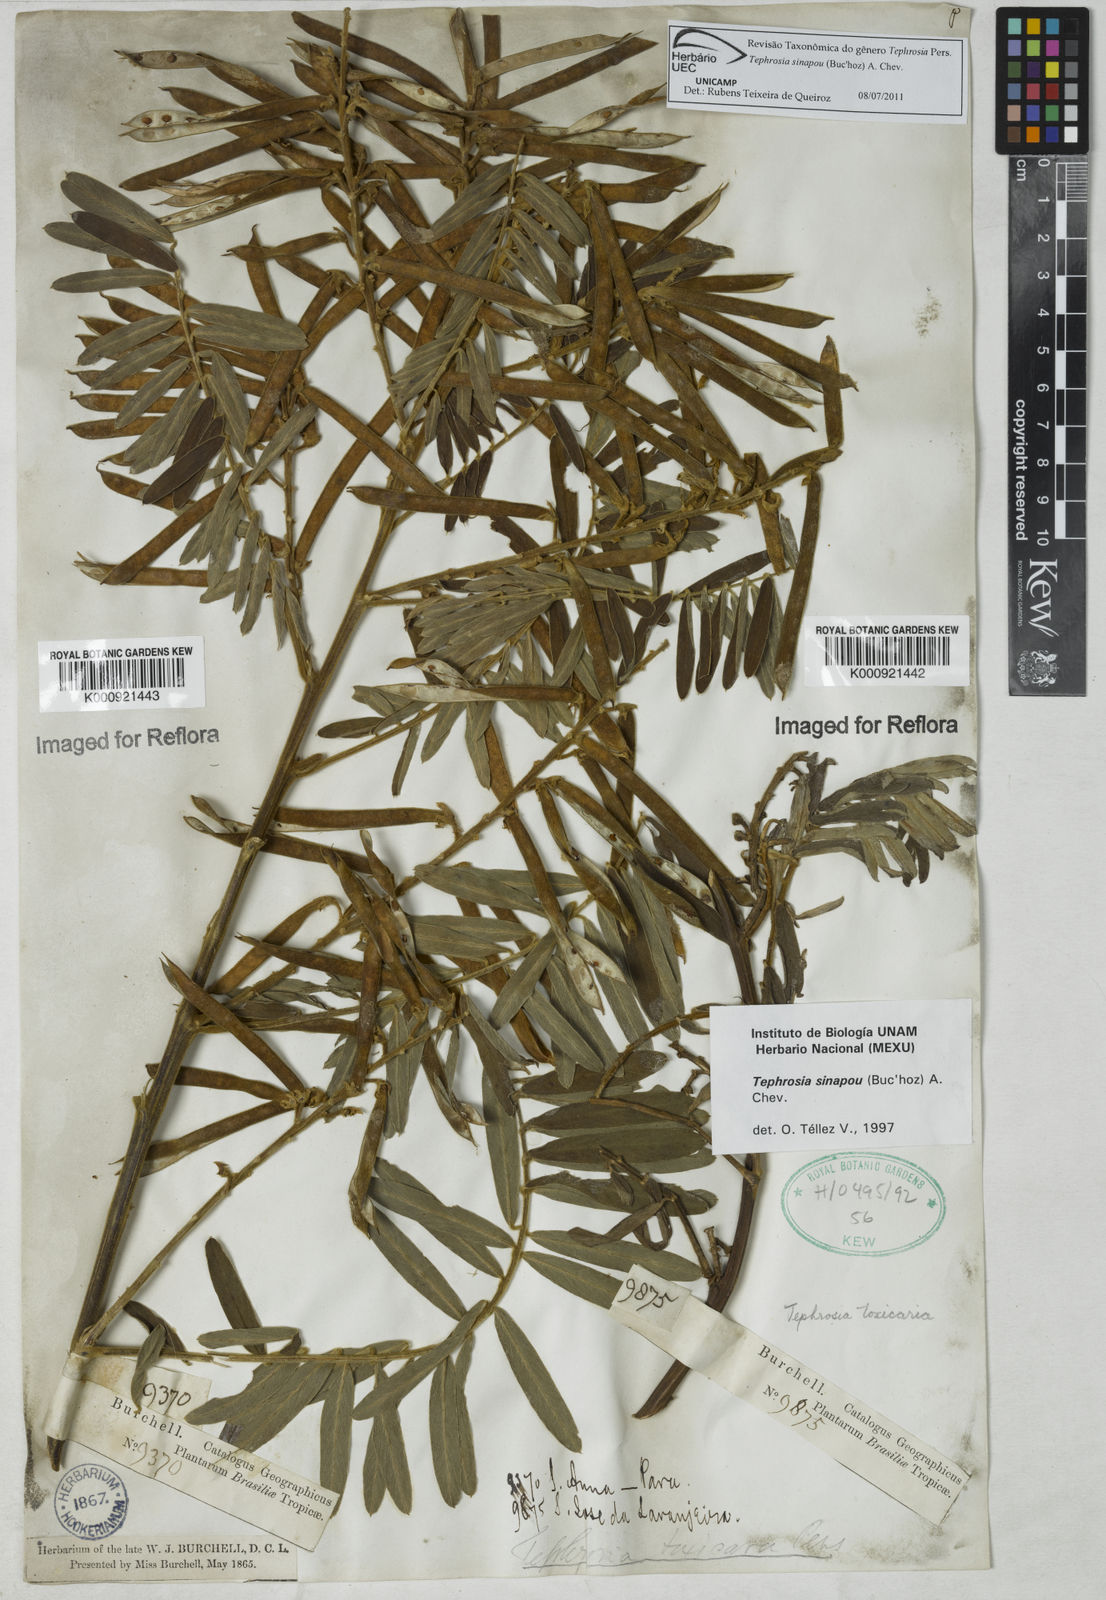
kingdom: Plantae
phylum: Tracheophyta
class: Magnoliopsida
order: Fabales
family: Fabaceae
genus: Tephrosia
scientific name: Tephrosia
